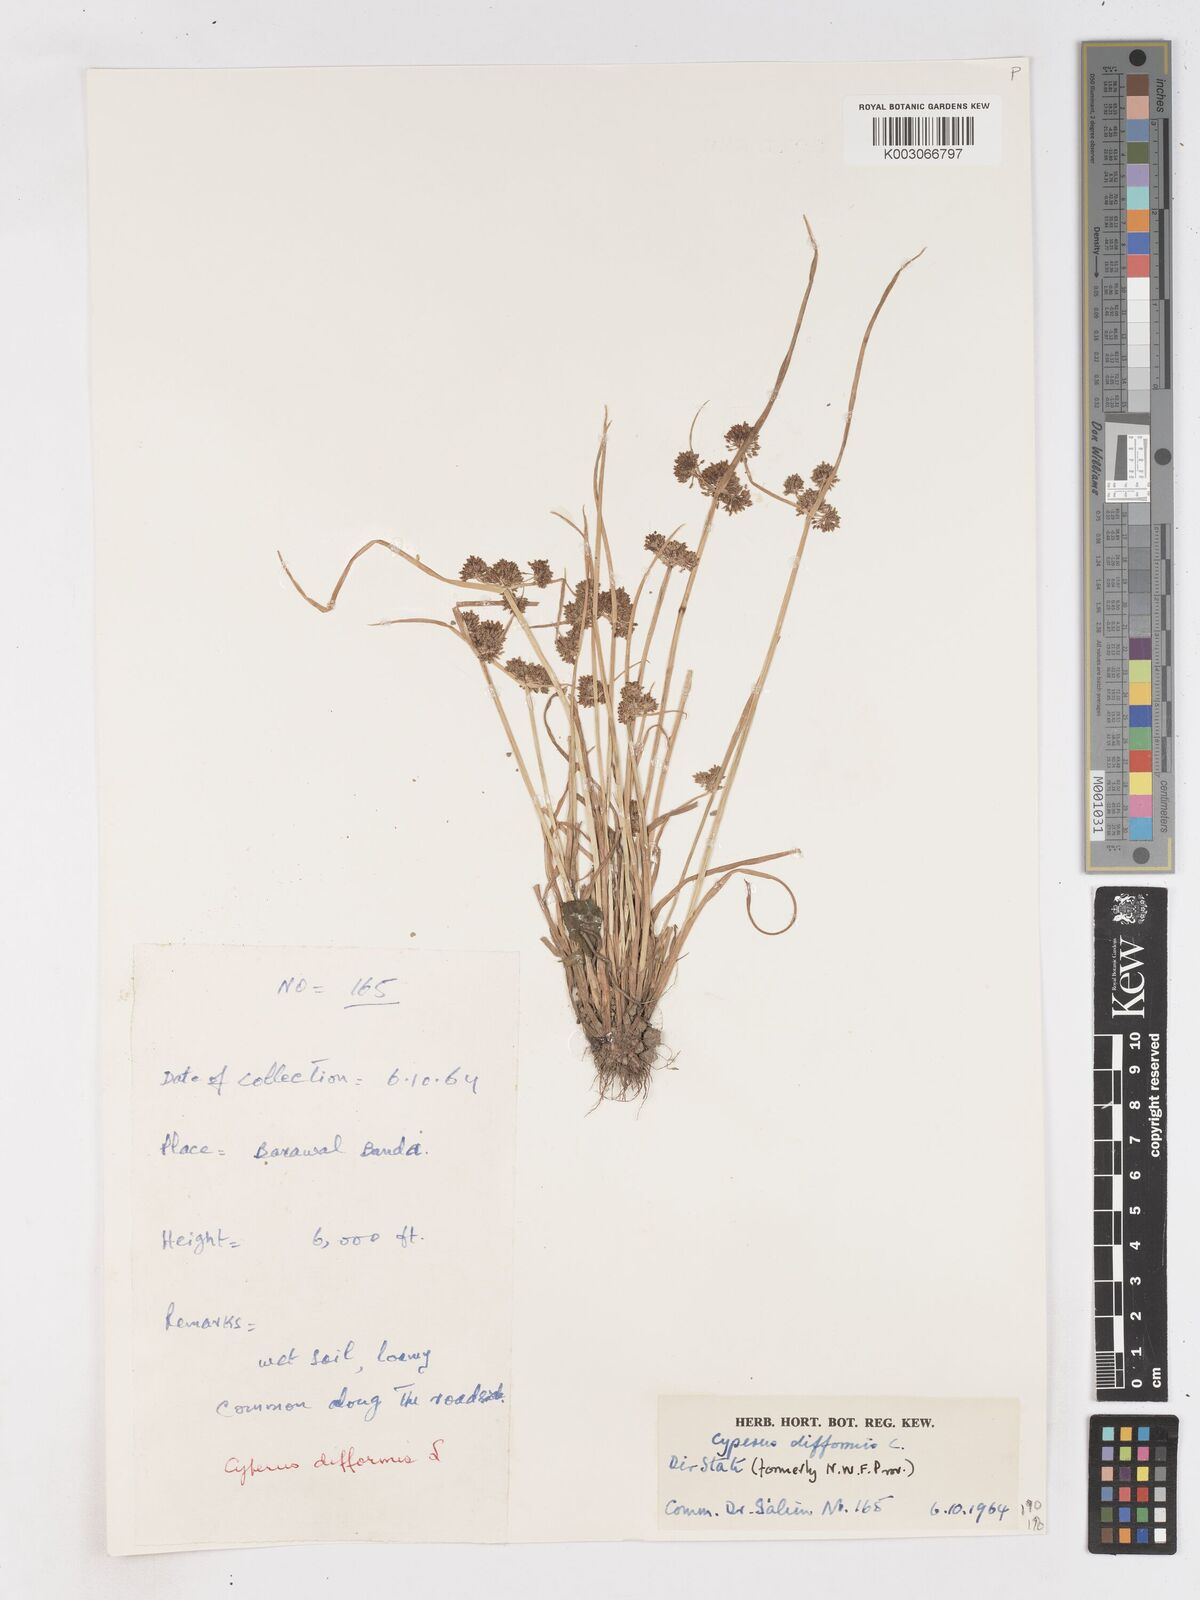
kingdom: Plantae
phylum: Tracheophyta
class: Liliopsida
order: Poales
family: Cyperaceae
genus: Cyperus
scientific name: Cyperus difformis
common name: Variable flatsedge
